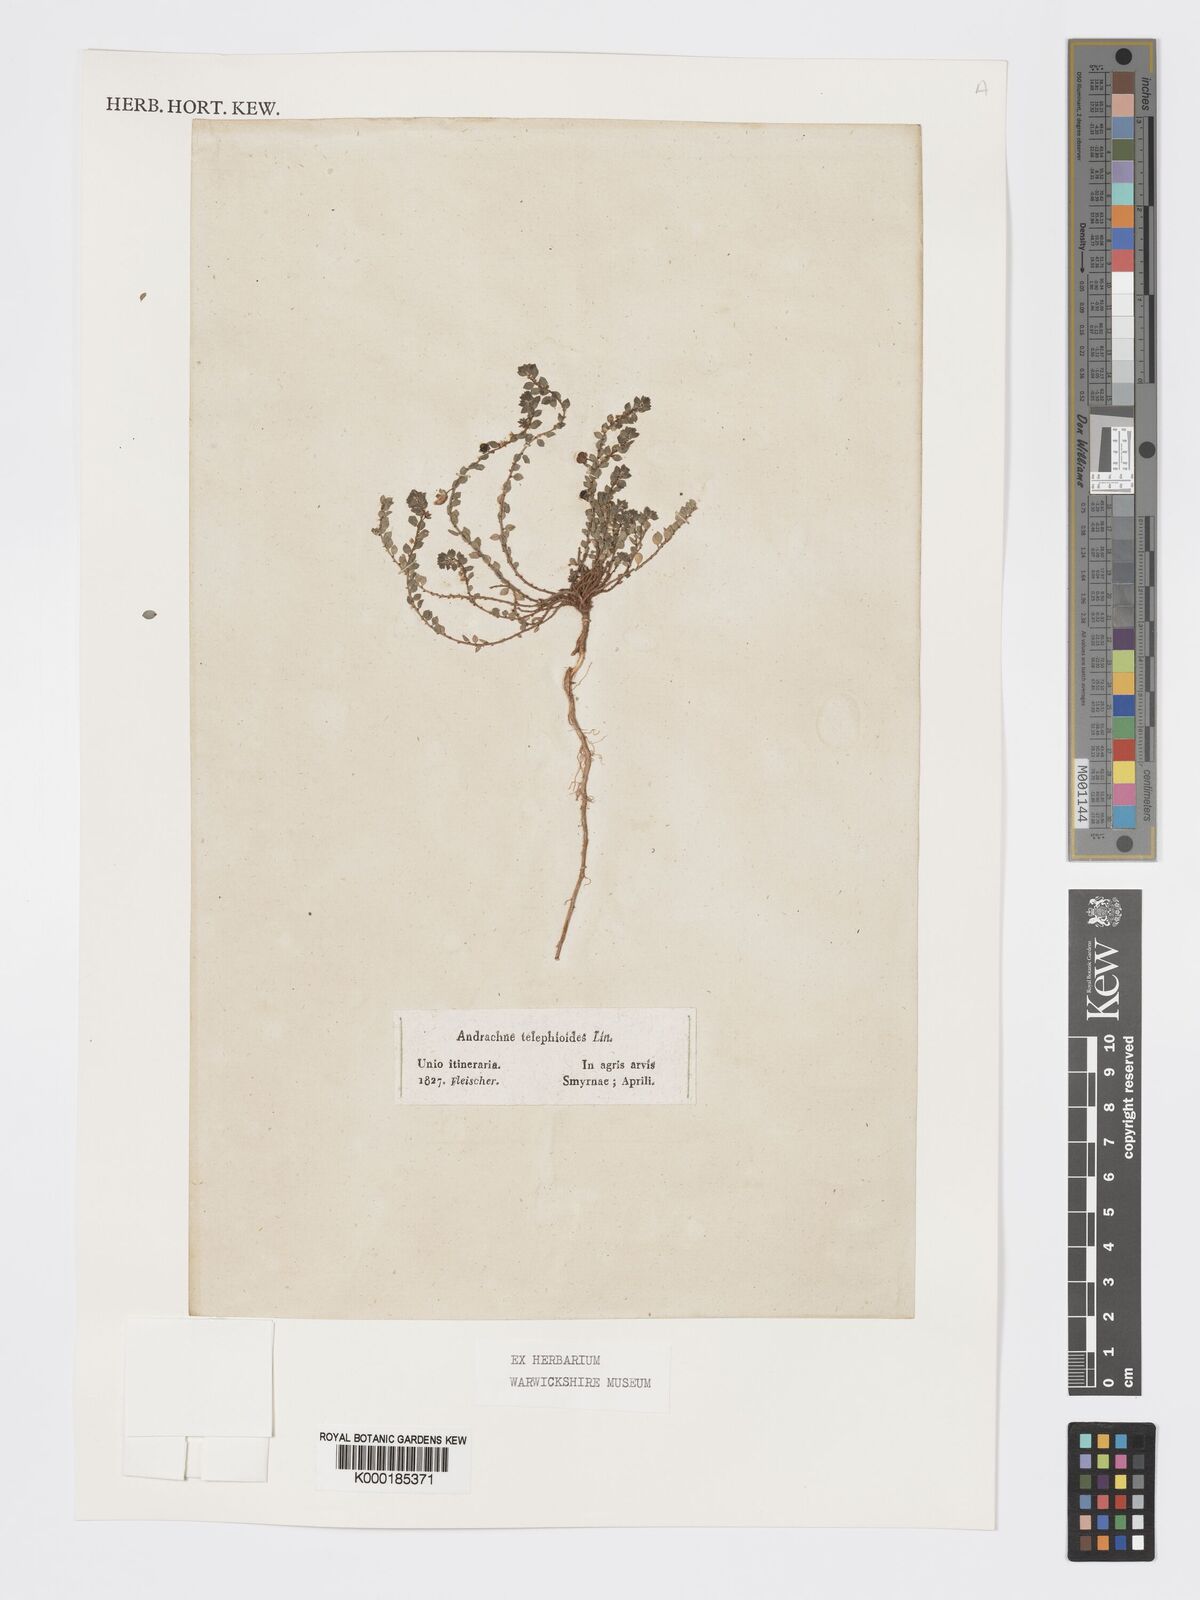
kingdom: Plantae
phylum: Tracheophyta
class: Magnoliopsida
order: Malpighiales
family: Phyllanthaceae
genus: Andrachne
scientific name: Andrachne telephioides
